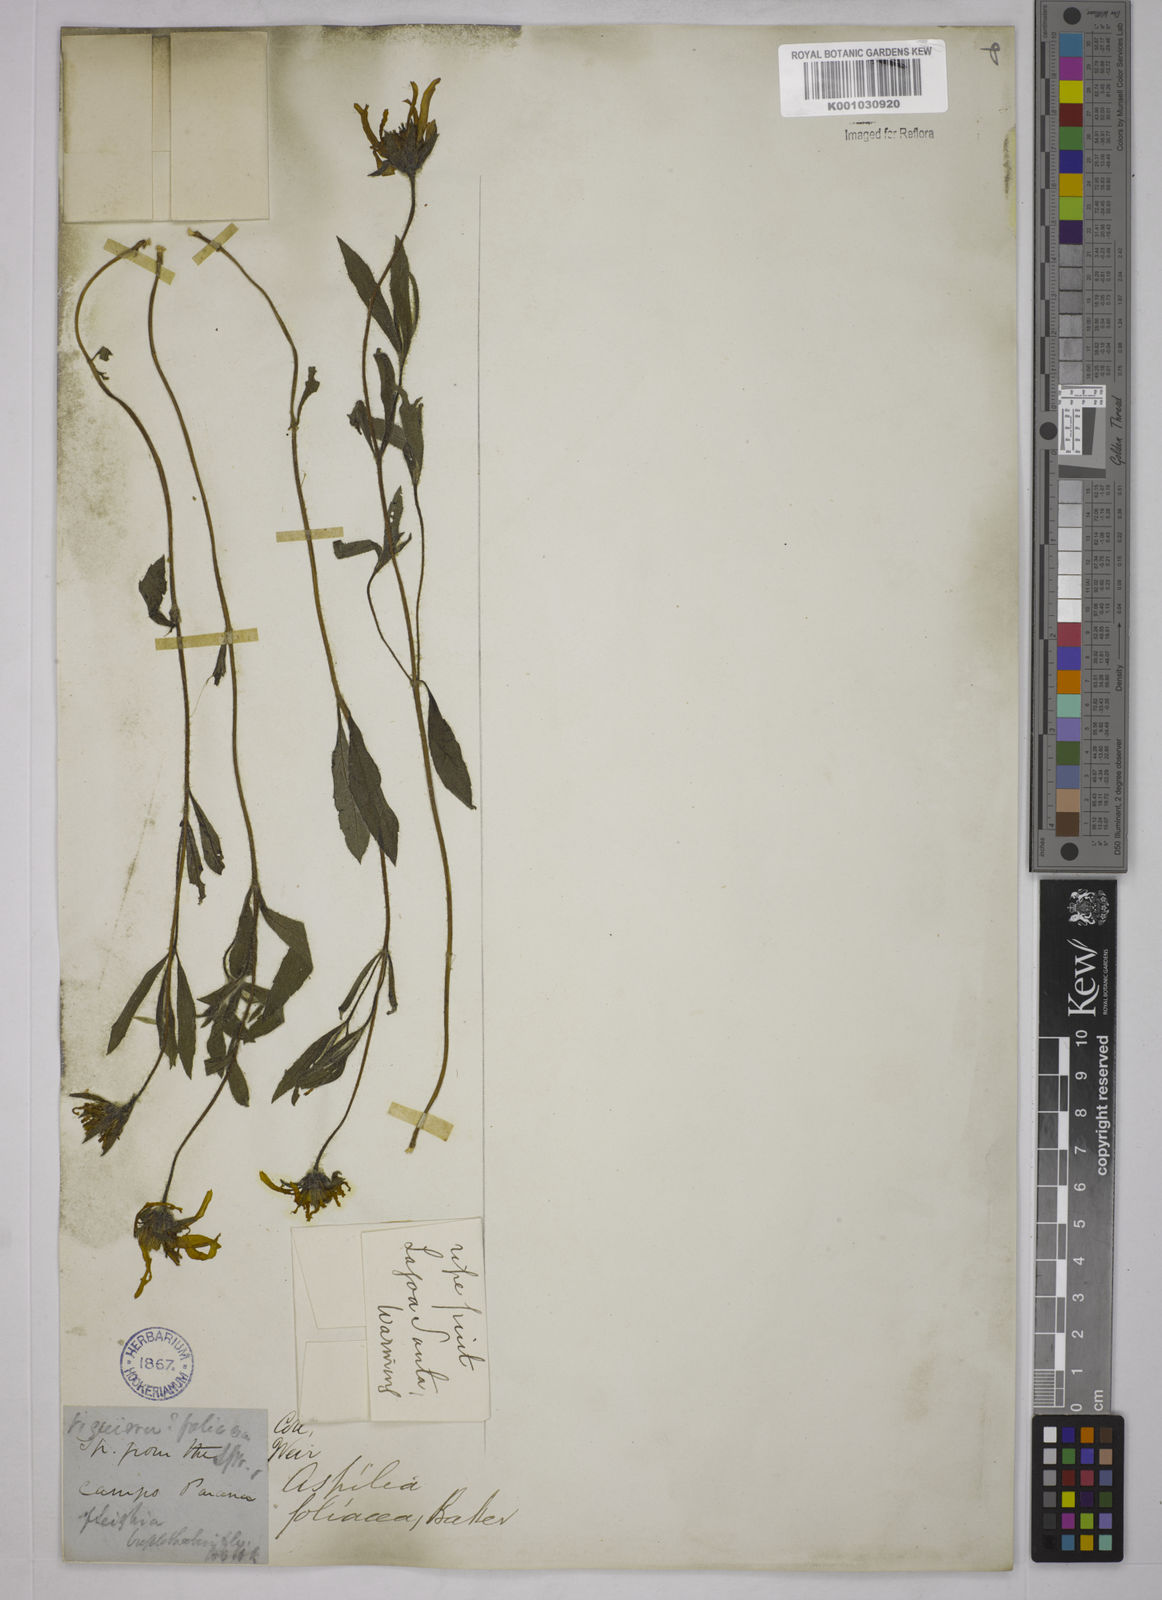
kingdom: Plantae
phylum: Tracheophyta
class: Magnoliopsida
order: Asterales
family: Asteraceae
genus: Wedelia
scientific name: Wedelia foliacea
